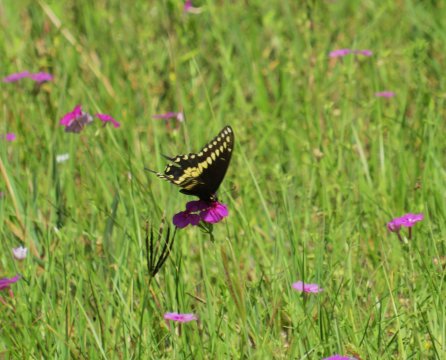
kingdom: Animalia
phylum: Arthropoda
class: Insecta
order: Lepidoptera
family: Papilionidae
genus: Papilio
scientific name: Papilio polyxenes
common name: Black Swallowtail
